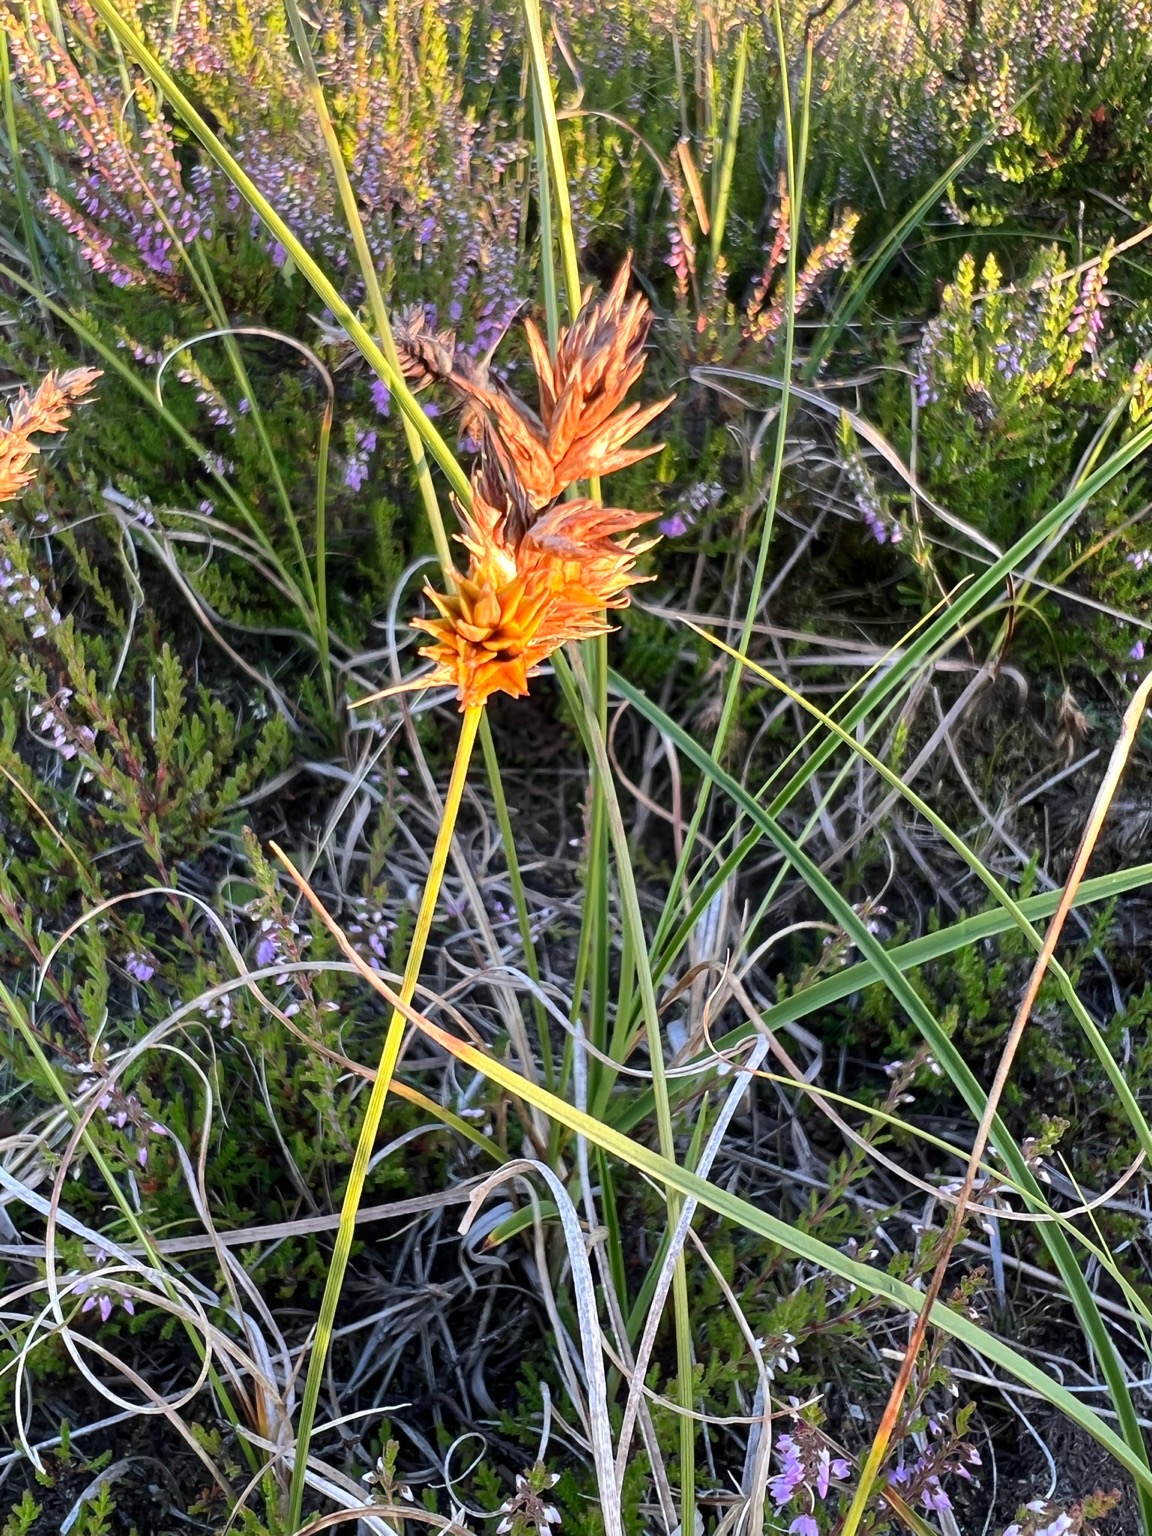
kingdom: Plantae
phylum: Tracheophyta
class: Liliopsida
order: Poales
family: Cyperaceae
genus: Carex
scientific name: Carex arenaria
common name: Sand-star
